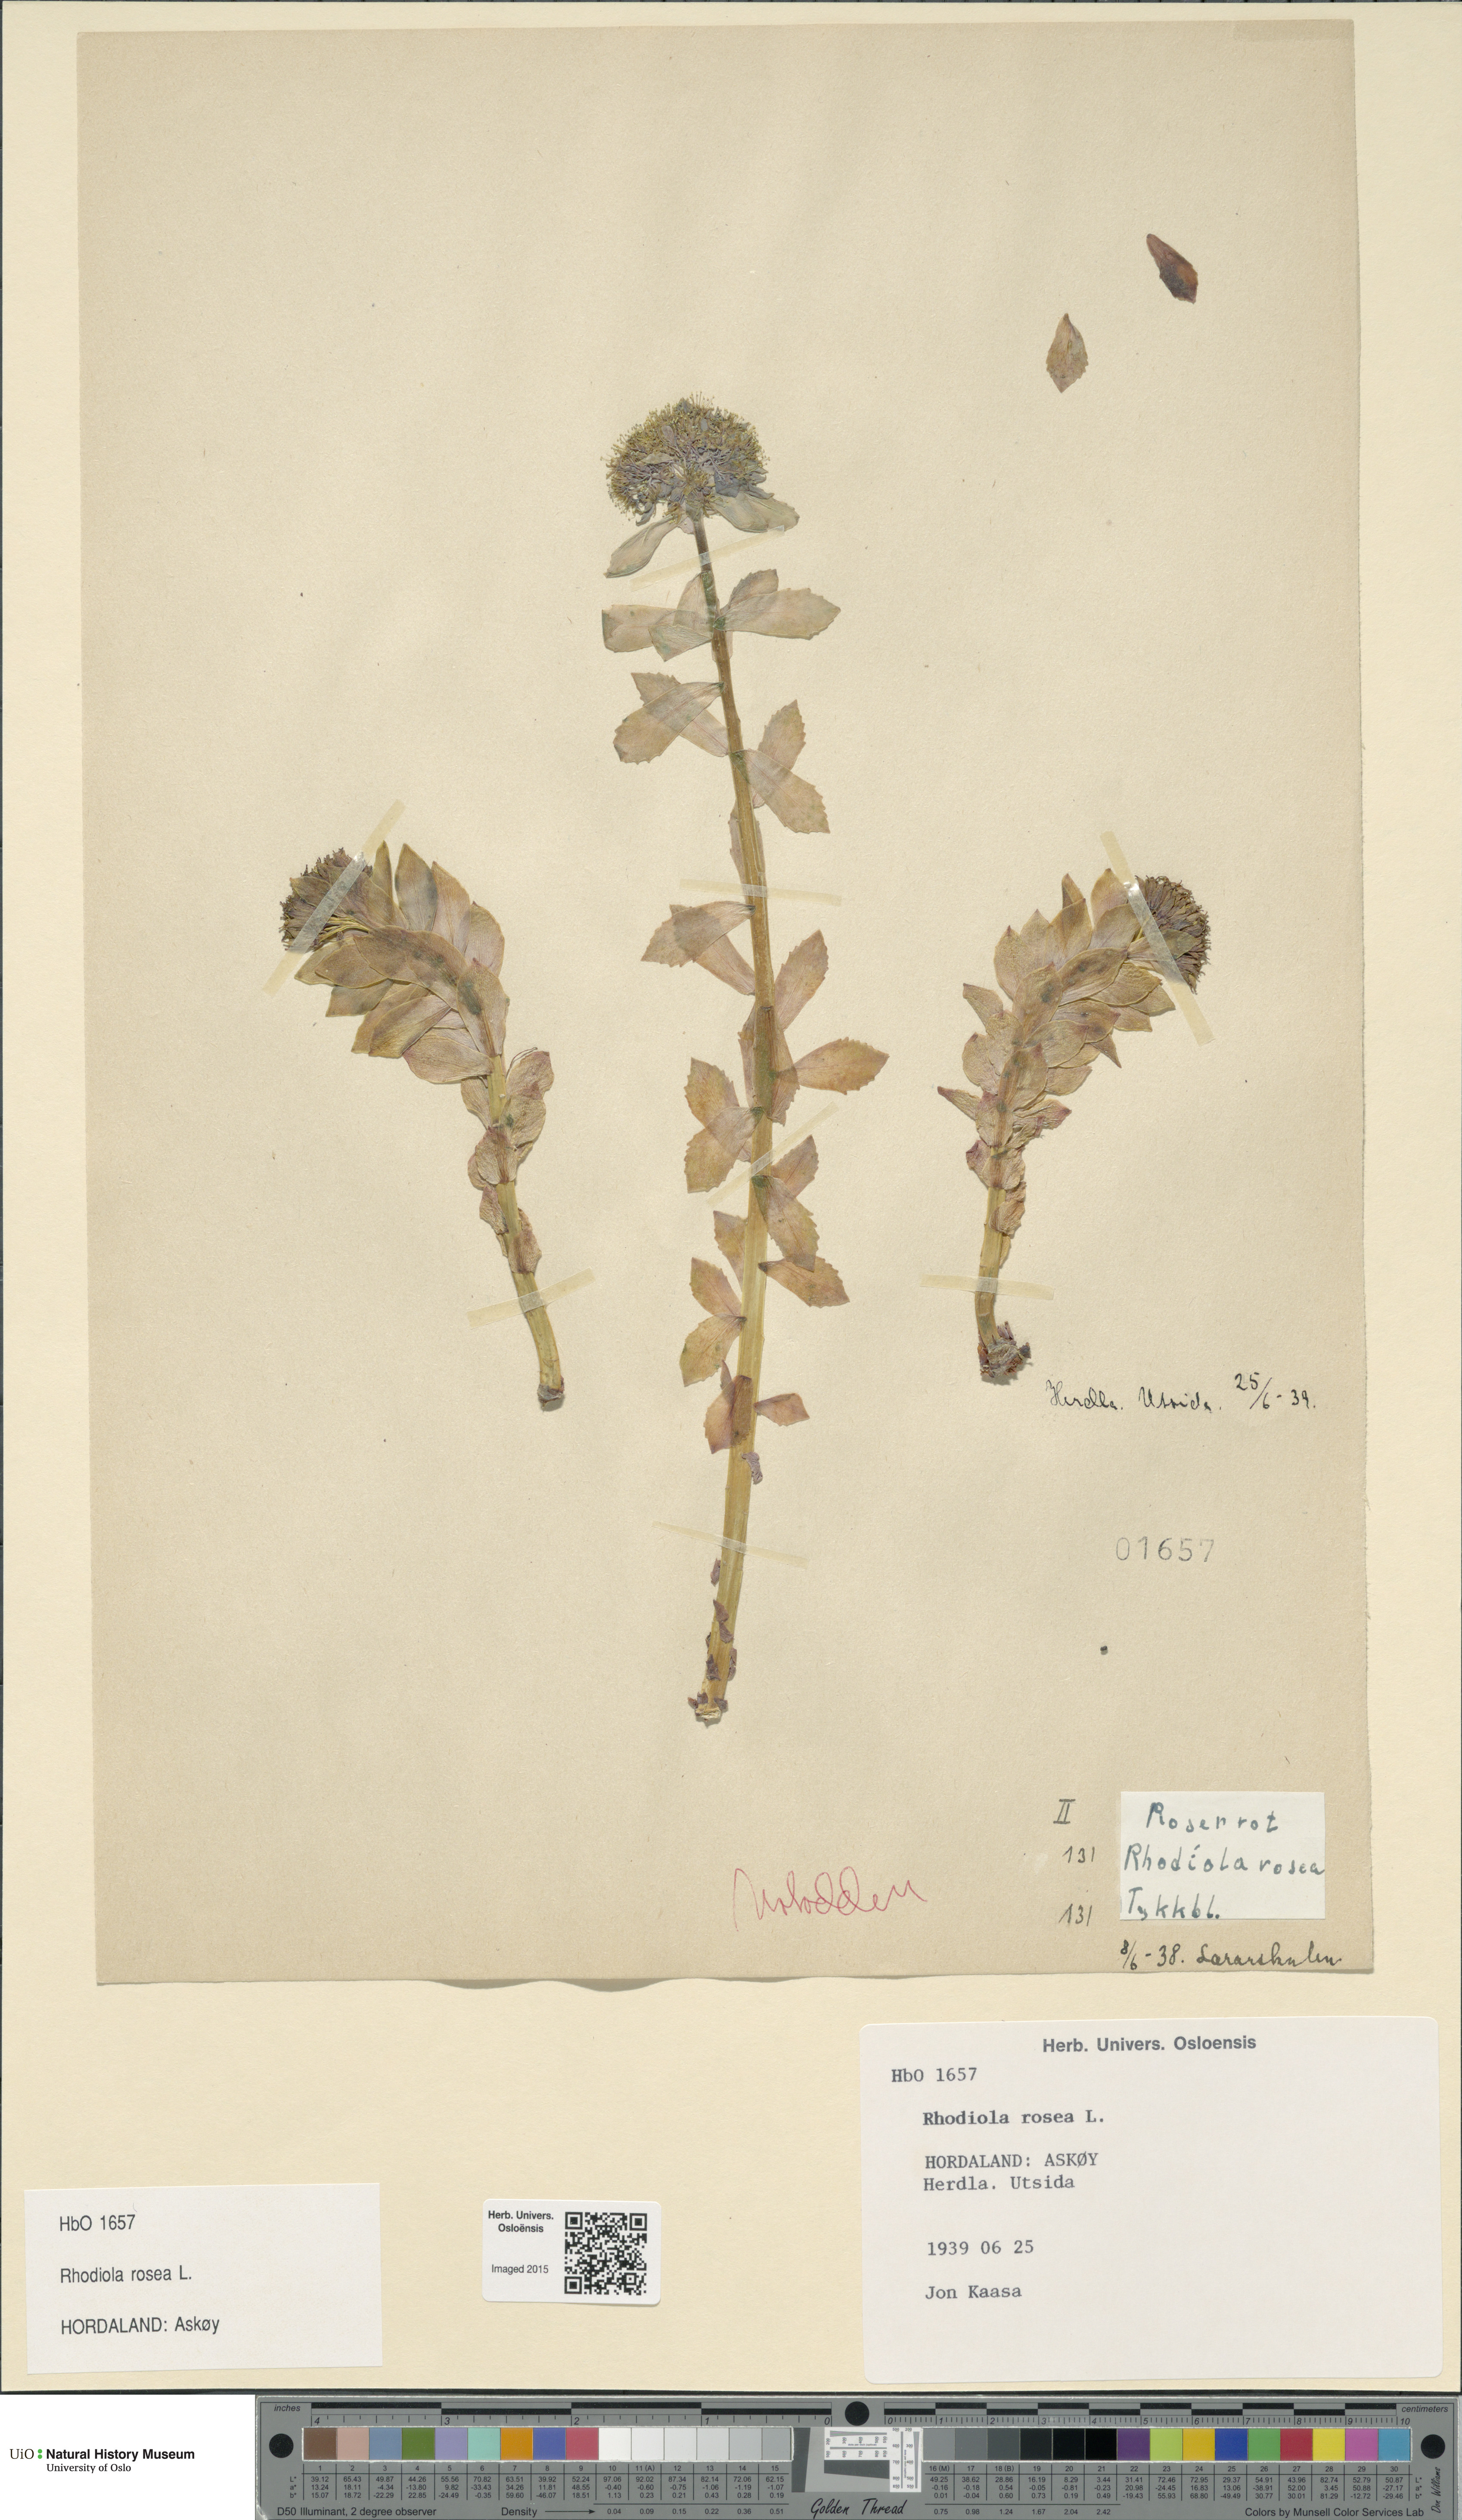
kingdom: Plantae
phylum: Tracheophyta
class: Magnoliopsida
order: Saxifragales
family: Crassulaceae
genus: Rhodiola
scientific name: Rhodiola rosea
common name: Roseroot
